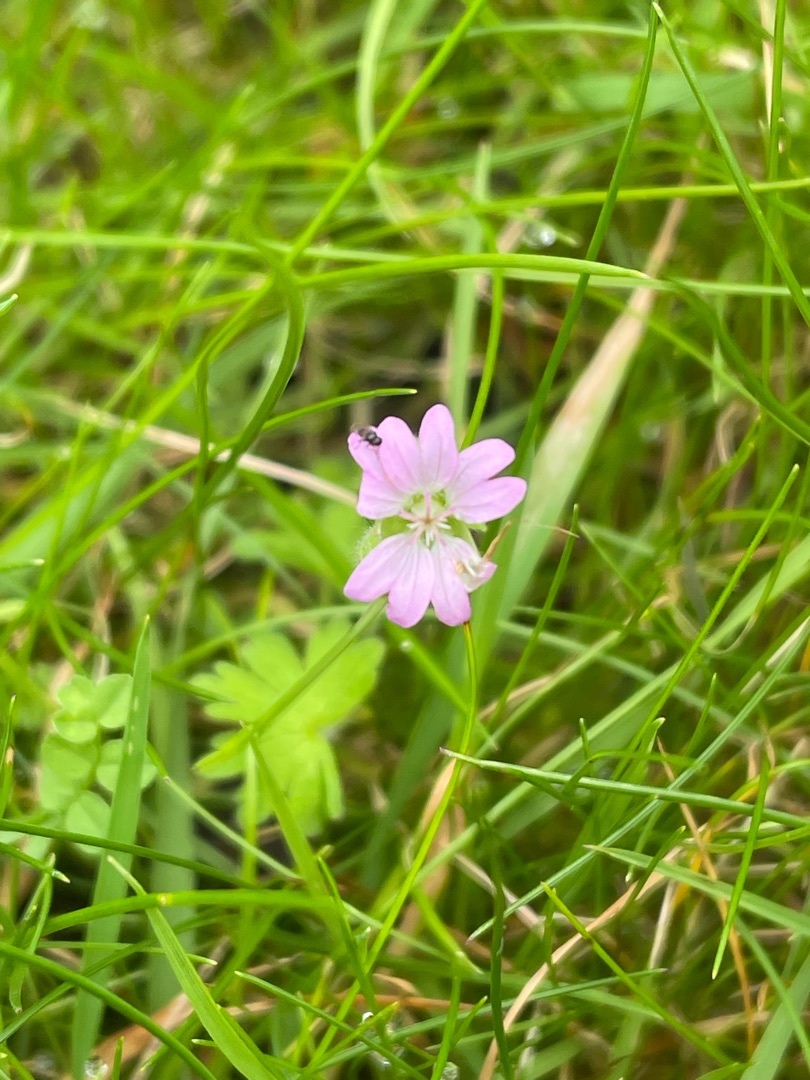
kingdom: Plantae
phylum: Tracheophyta
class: Magnoliopsida
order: Geraniales
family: Geraniaceae
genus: Geranium
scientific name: Geranium molle
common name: Blød storkenæb
